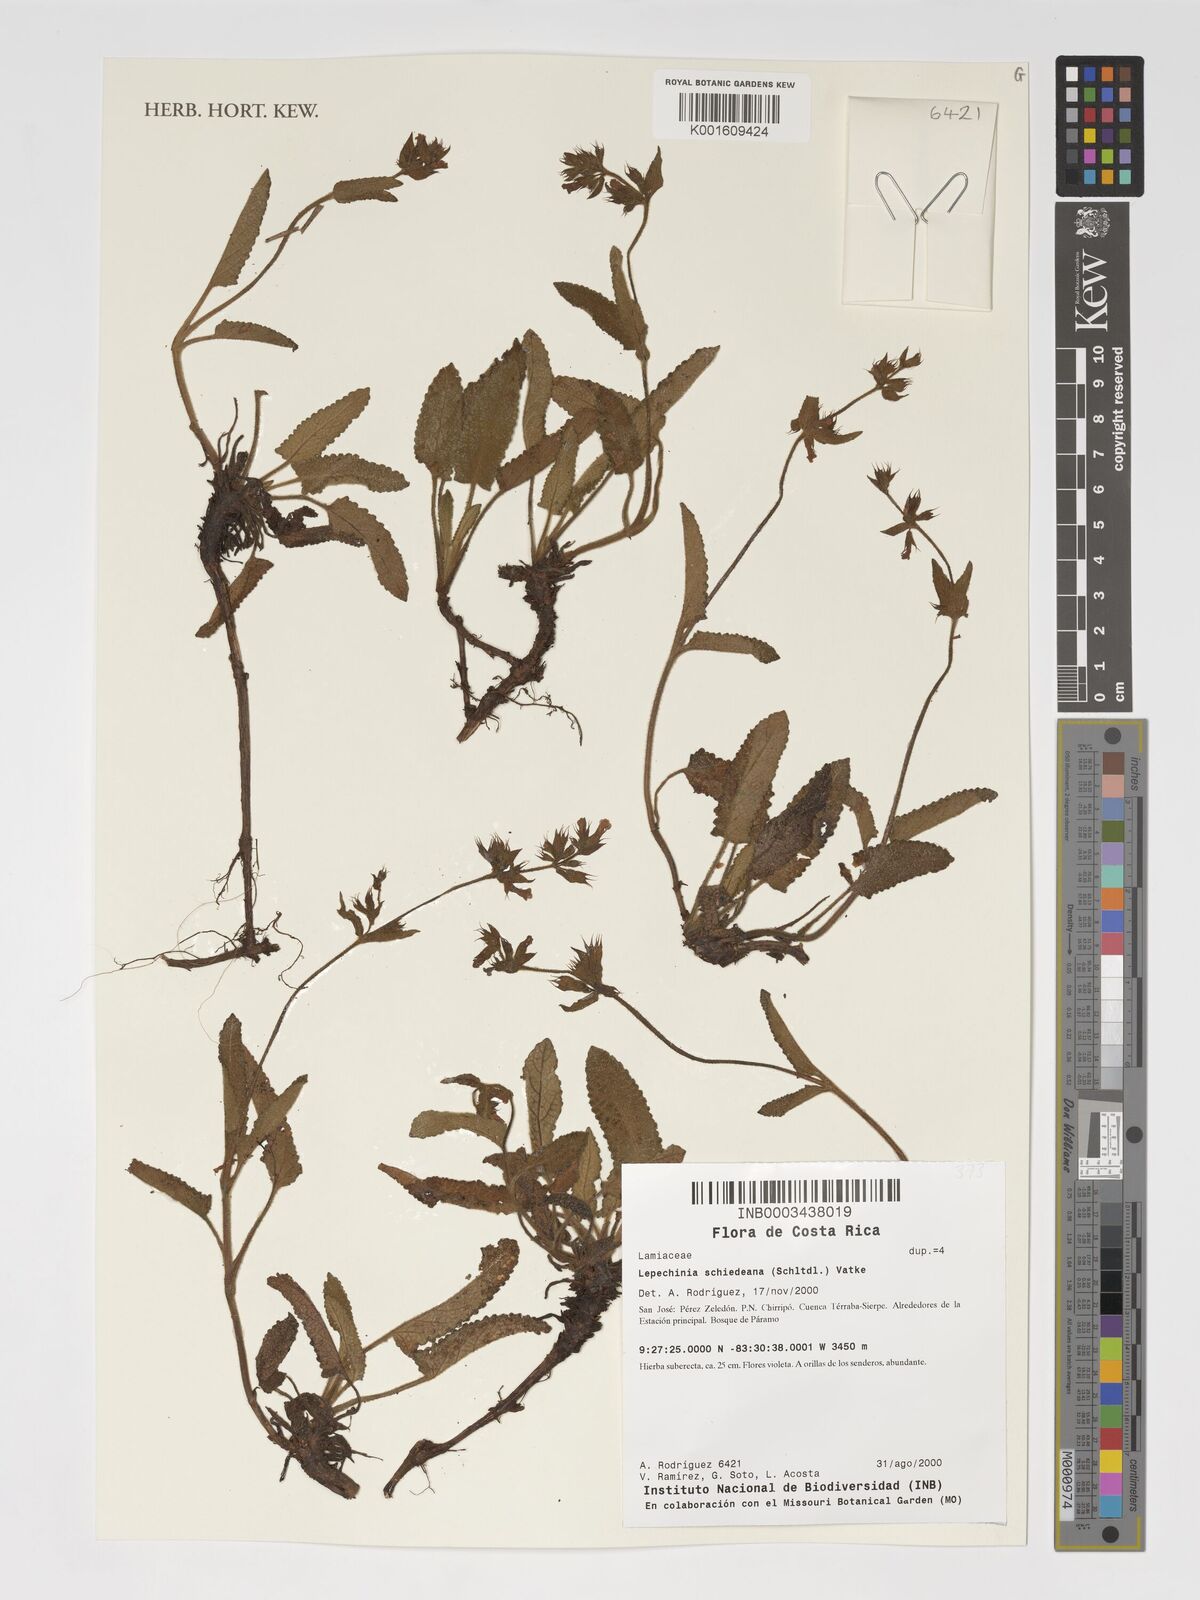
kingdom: Plantae
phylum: Tracheophyta
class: Magnoliopsida
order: Lamiales
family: Lamiaceae
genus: Lepechinia
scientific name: Lepechinia schiedeana
